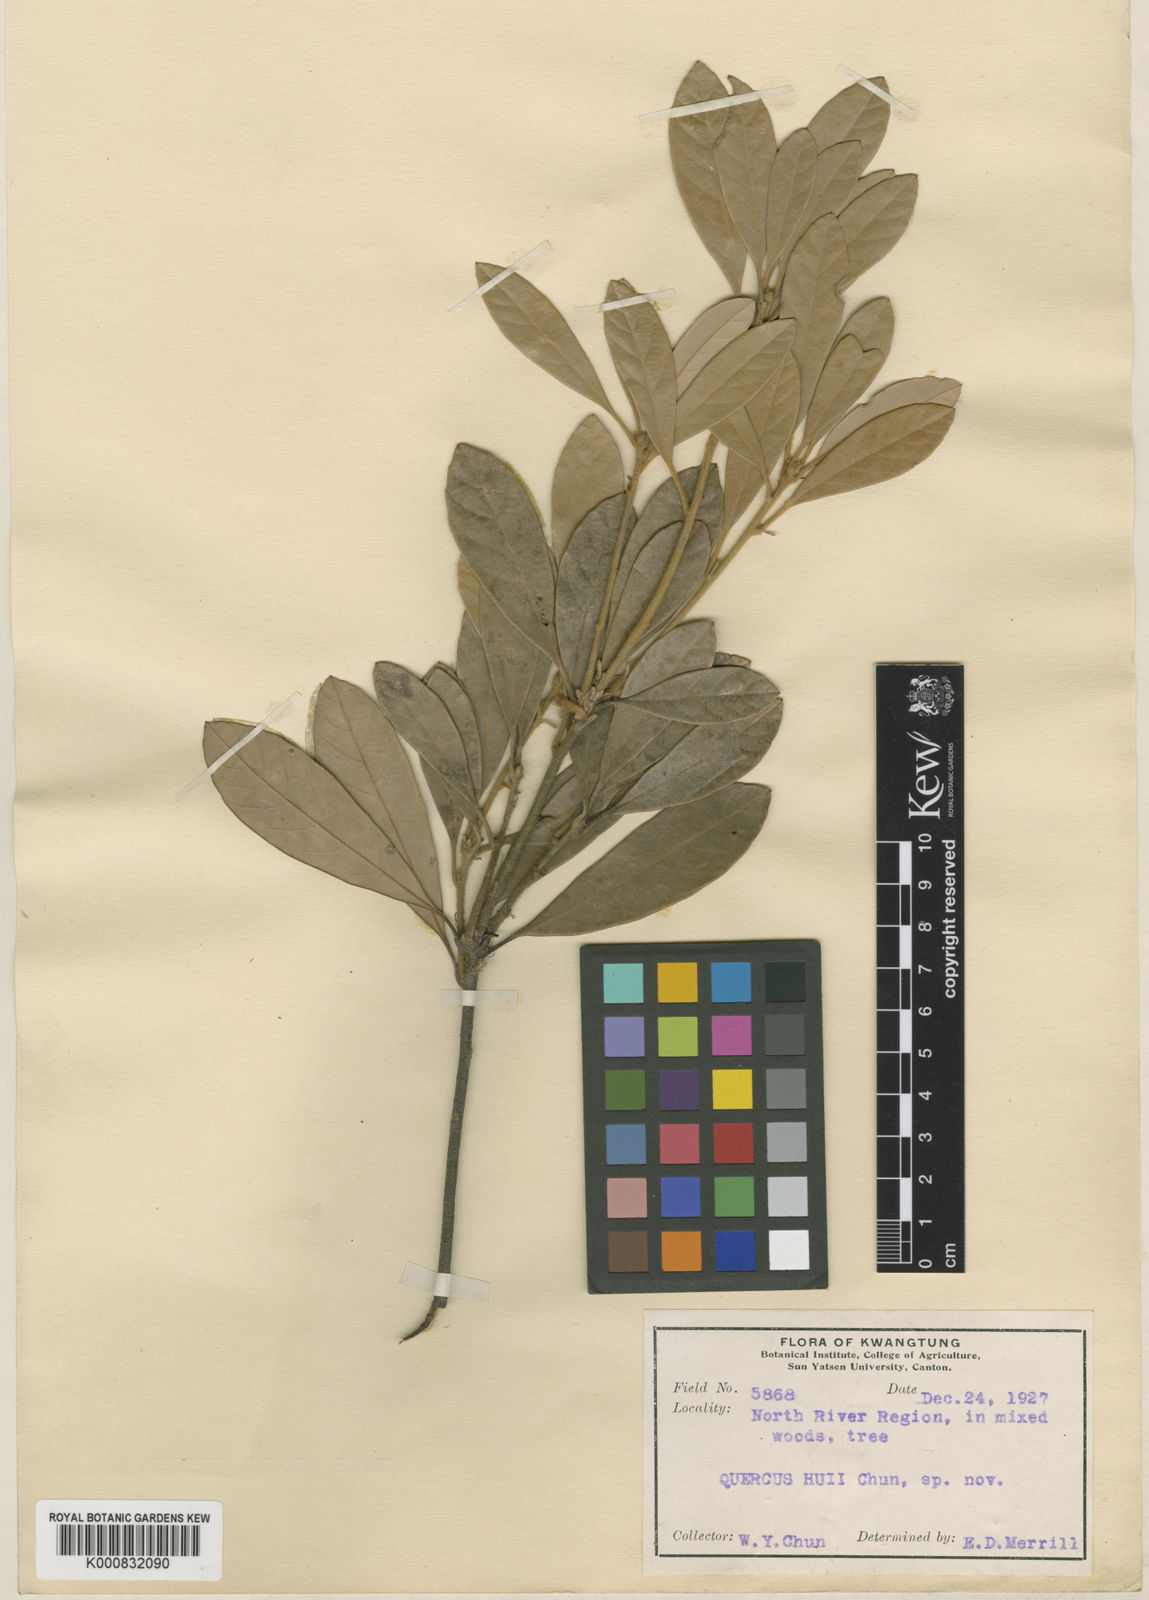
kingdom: Plantae
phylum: Tracheophyta
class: Magnoliopsida
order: Fagales
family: Fagaceae
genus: Quercus
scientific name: Quercus hui
